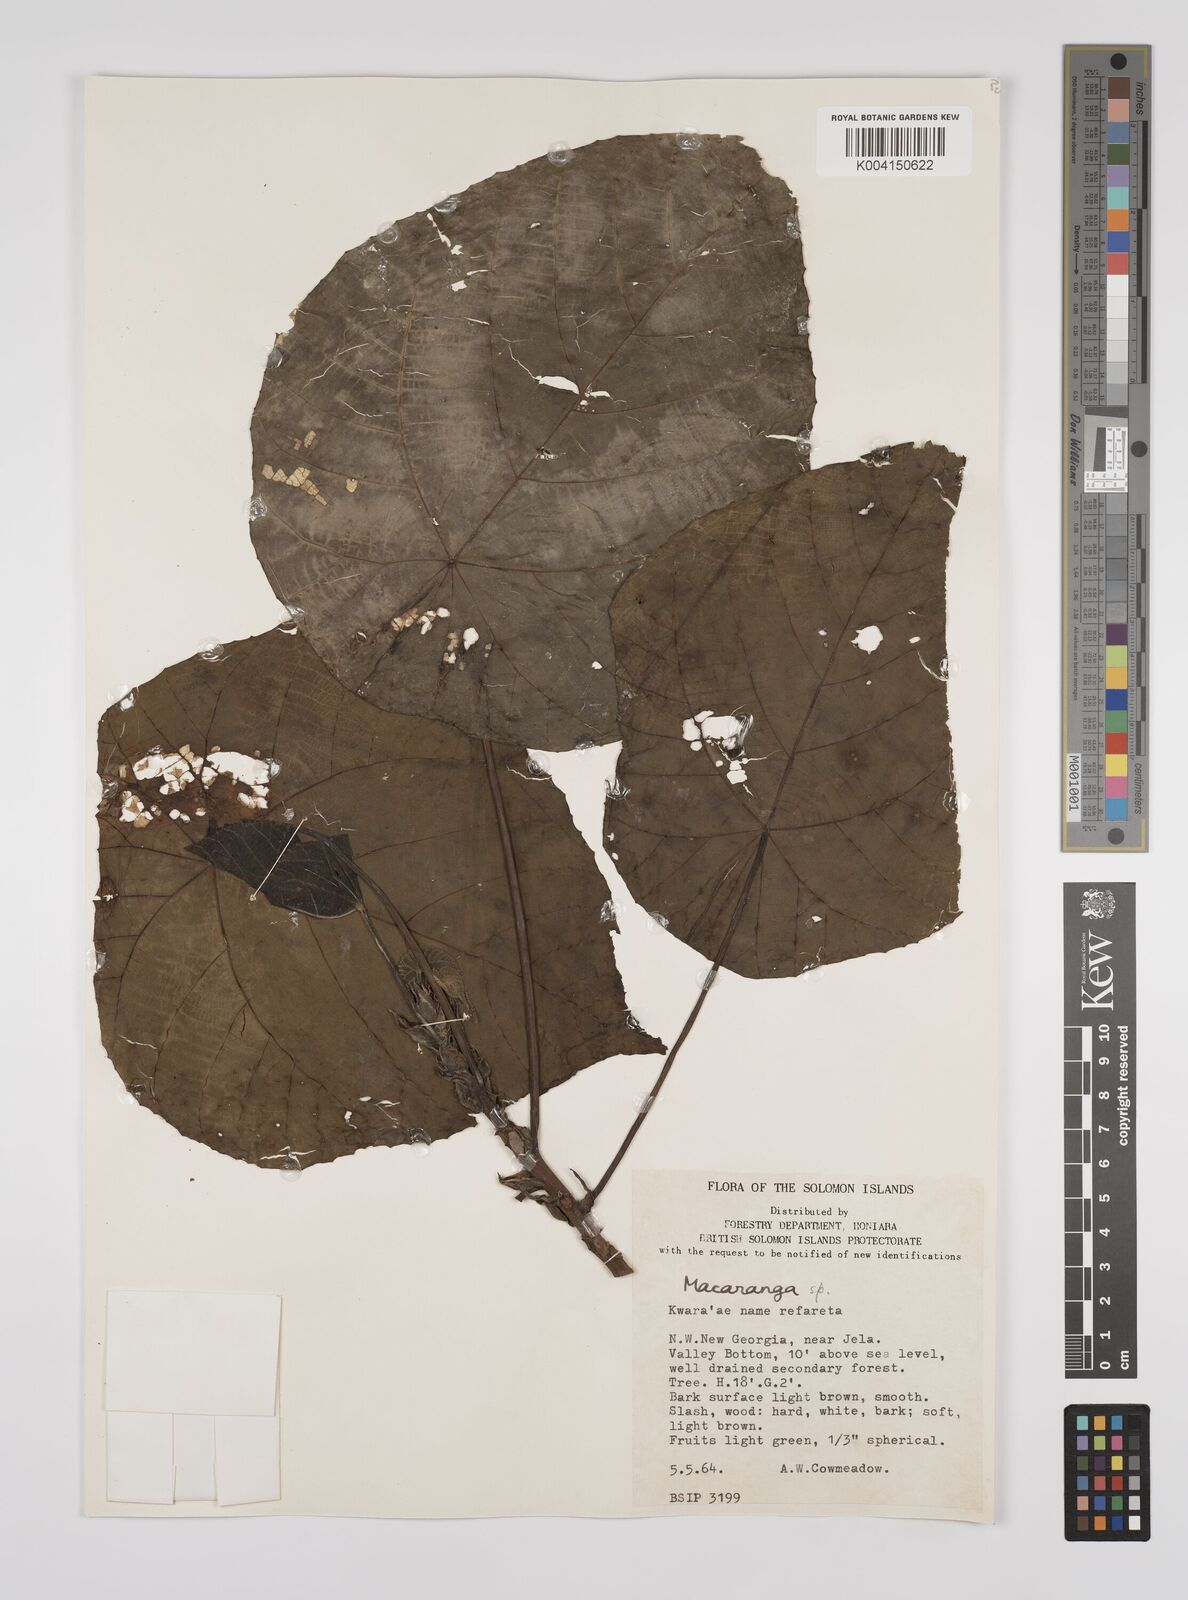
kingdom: Plantae
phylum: Tracheophyta
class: Magnoliopsida
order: Malpighiales
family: Euphorbiaceae
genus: Macaranga
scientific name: Macaranga tanarius
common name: Parasol leaf tree
